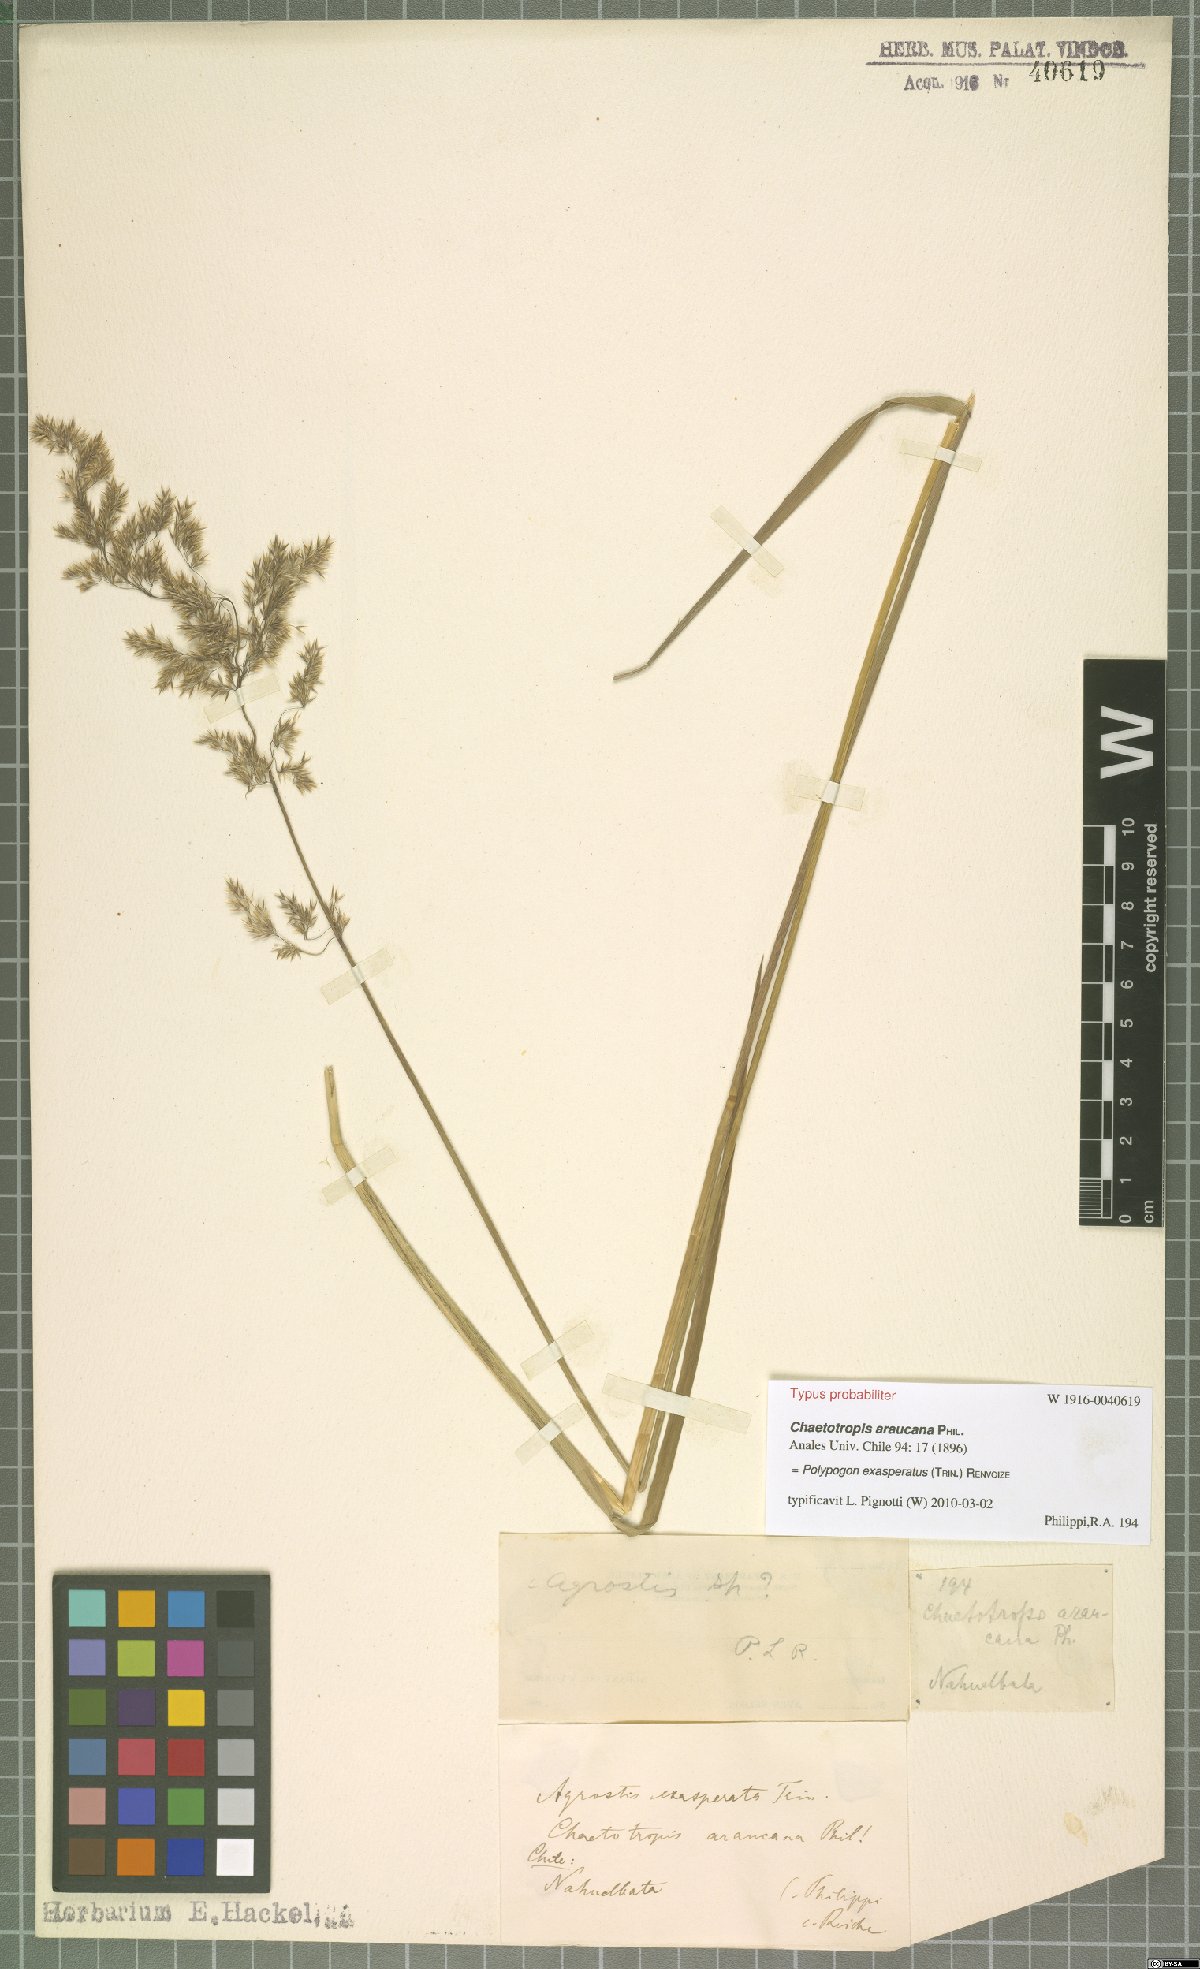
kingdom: Plantae
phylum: Tracheophyta
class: Liliopsida
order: Poales
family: Poaceae
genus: Polypogon
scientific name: Polypogon exasperatus
